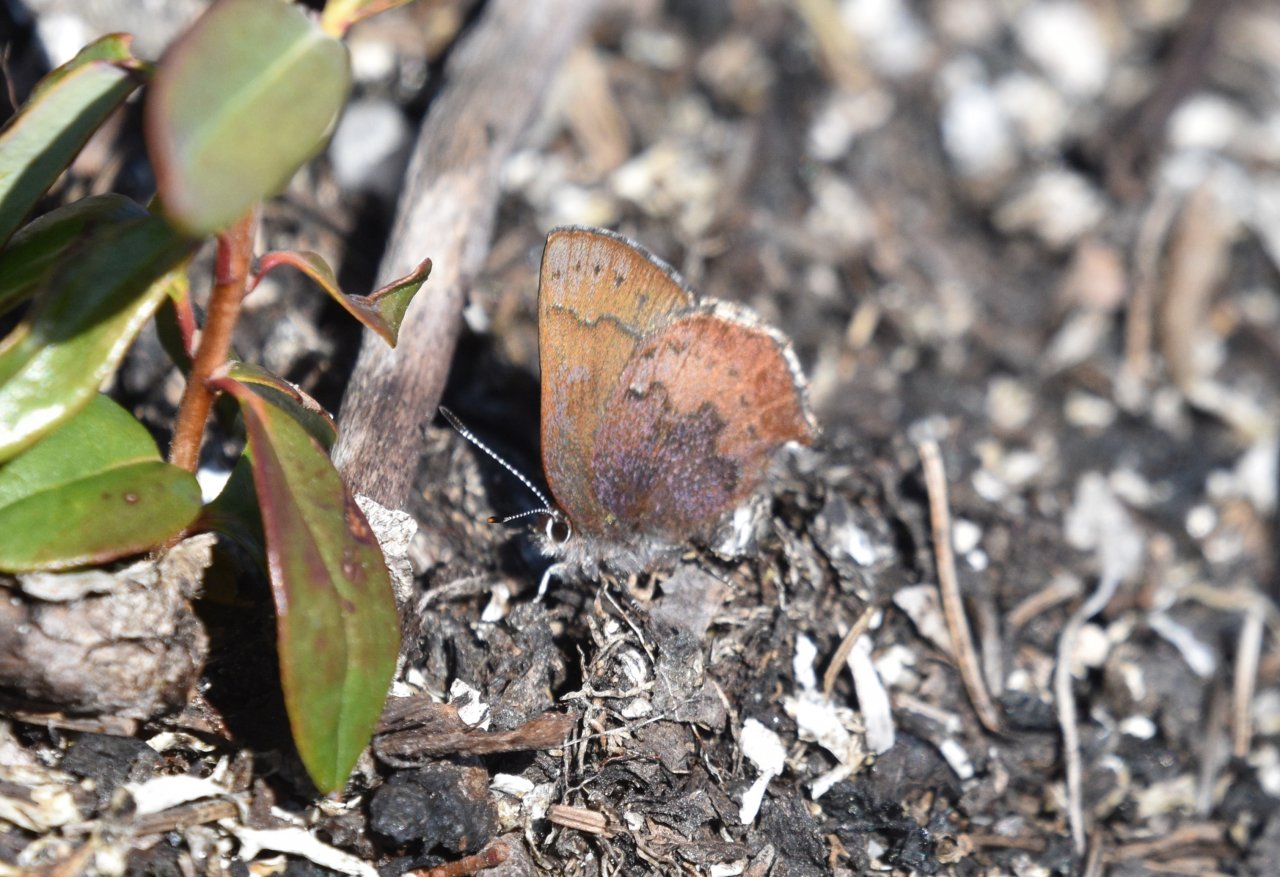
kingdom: Animalia
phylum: Arthropoda
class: Insecta
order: Lepidoptera
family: Lycaenidae
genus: Incisalia
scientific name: Incisalia irioides
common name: Brown Elfin
